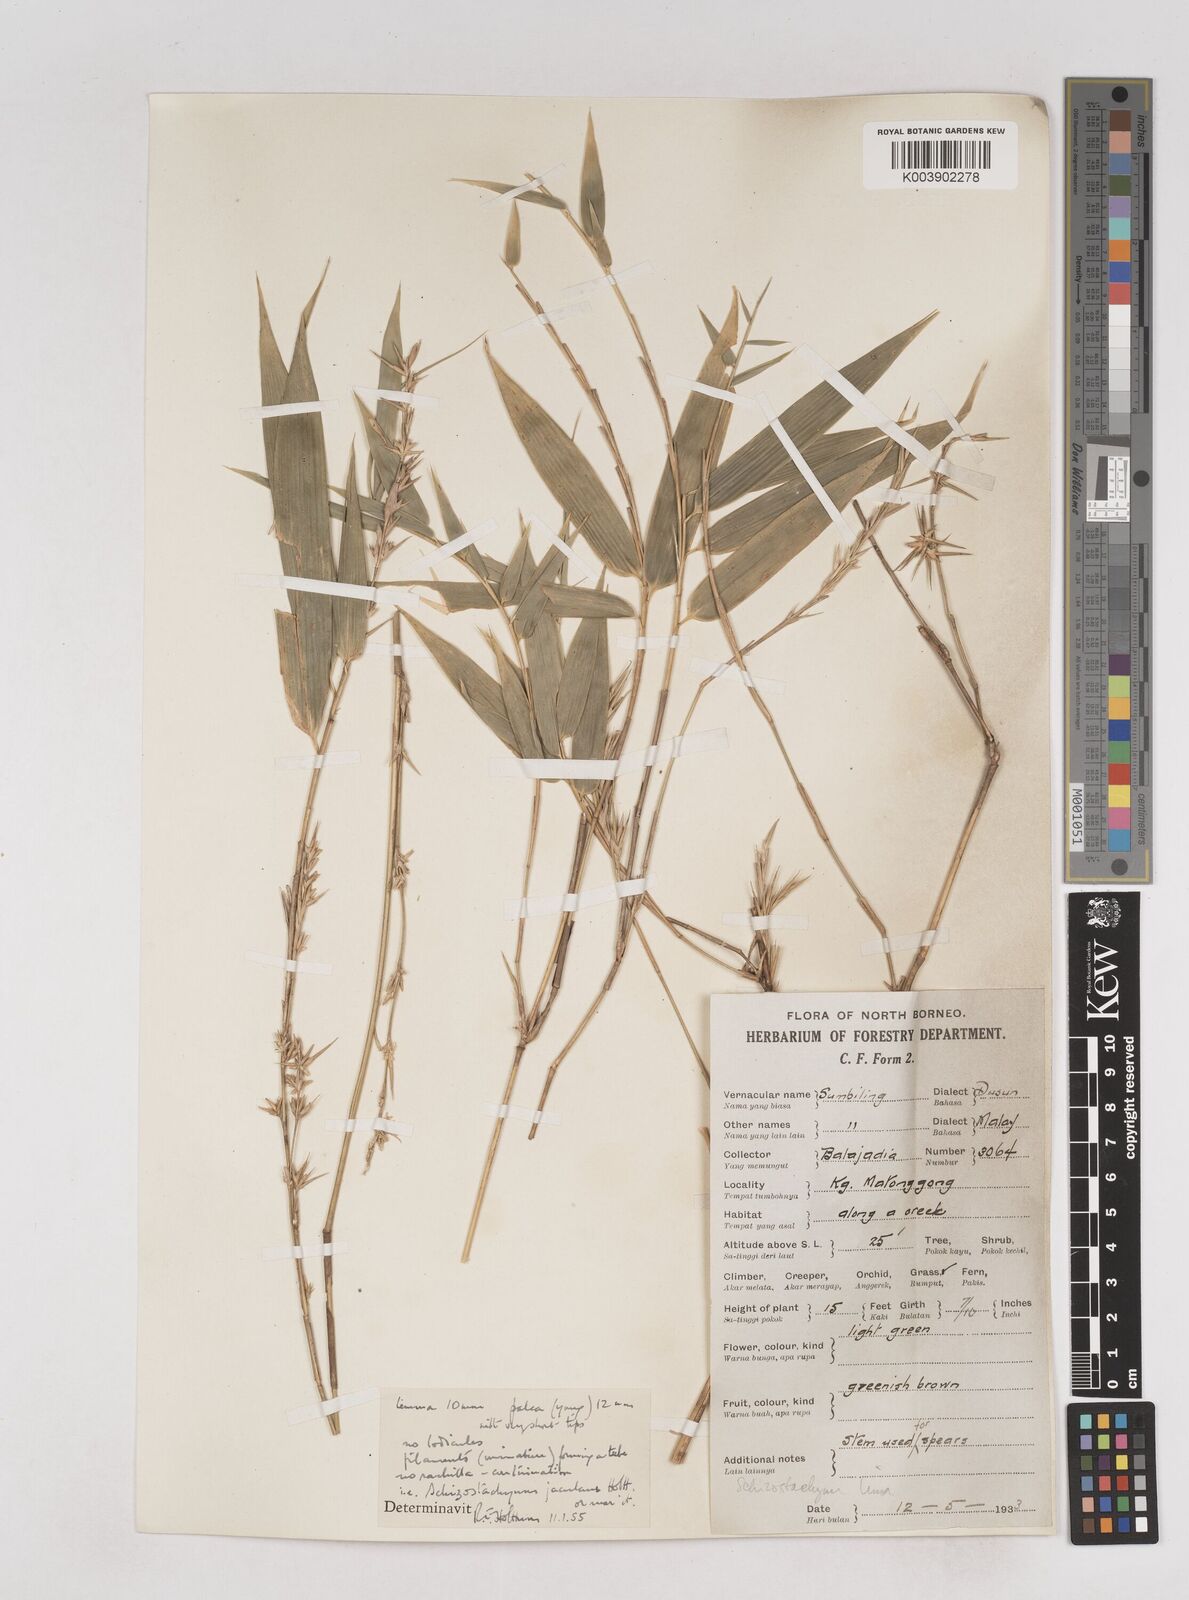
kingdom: Plantae
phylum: Tracheophyta
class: Liliopsida
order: Poales
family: Poaceae
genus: Schizostachyum
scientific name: Schizostachyum lima
